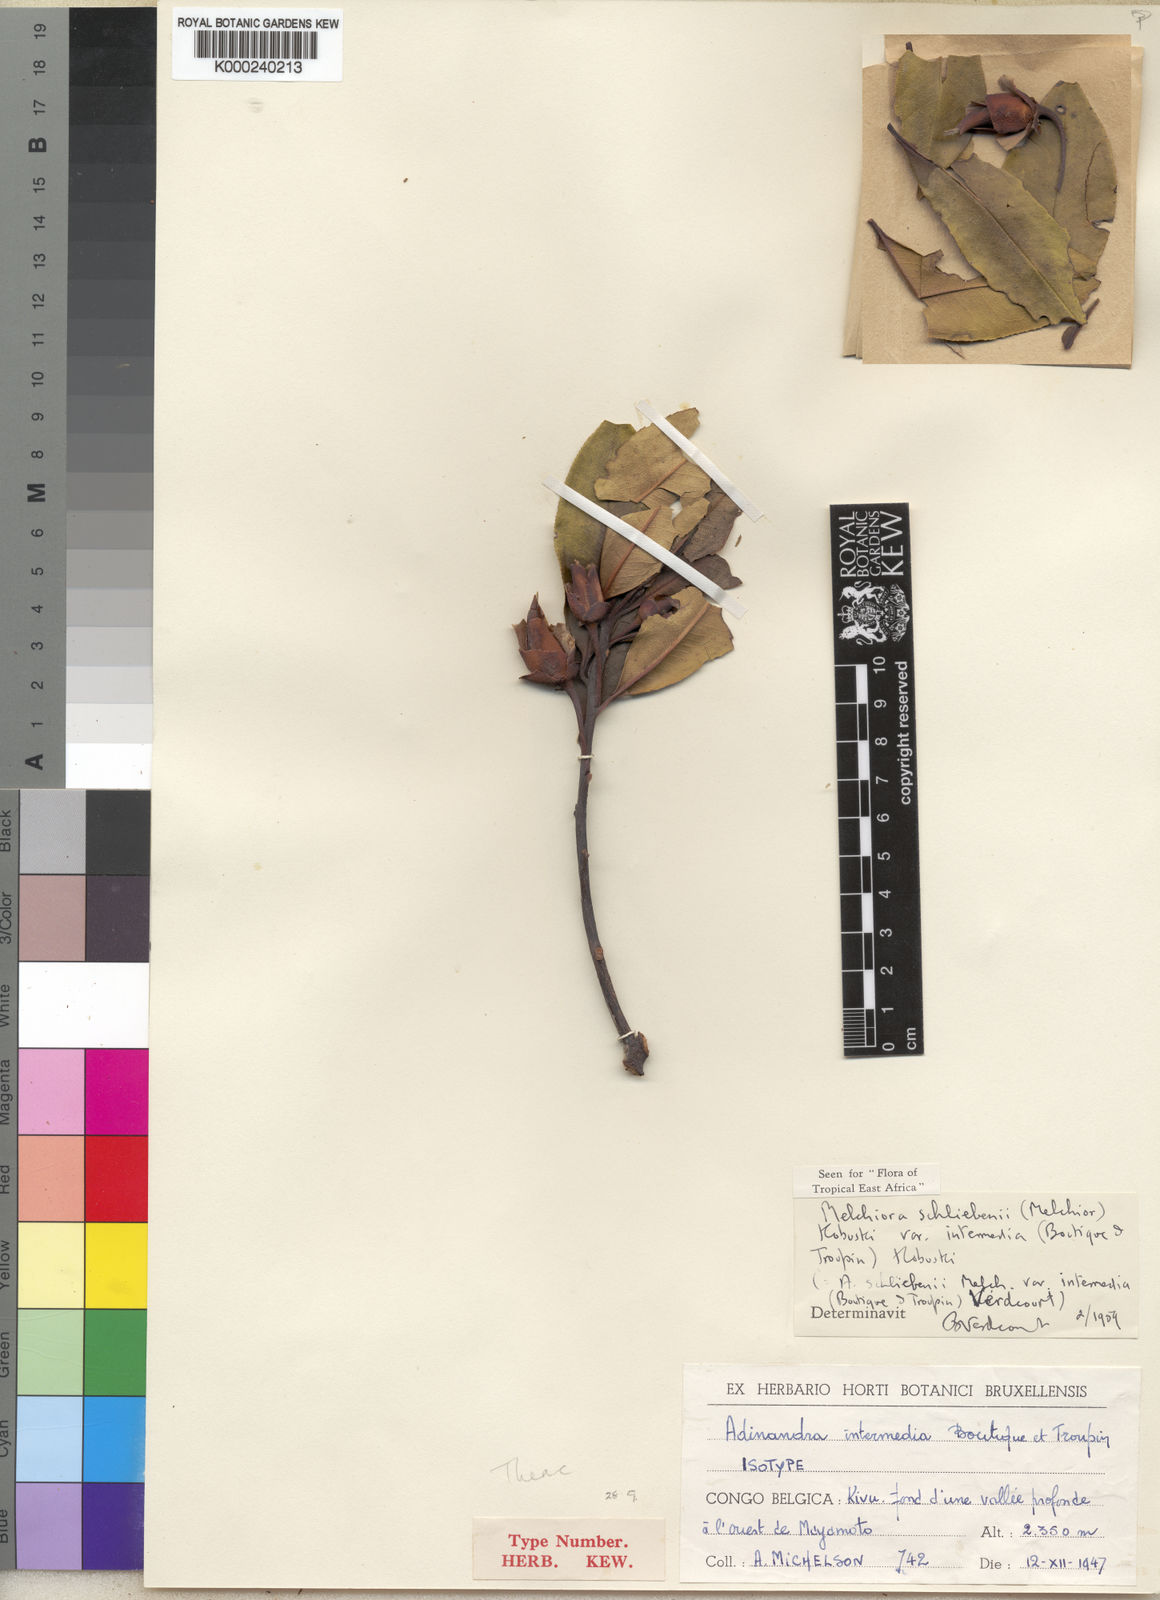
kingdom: Plantae
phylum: Tracheophyta
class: Magnoliopsida
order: Ericales
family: Pentaphylacaceae
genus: Balthasaria
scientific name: Balthasaria schliebenii
